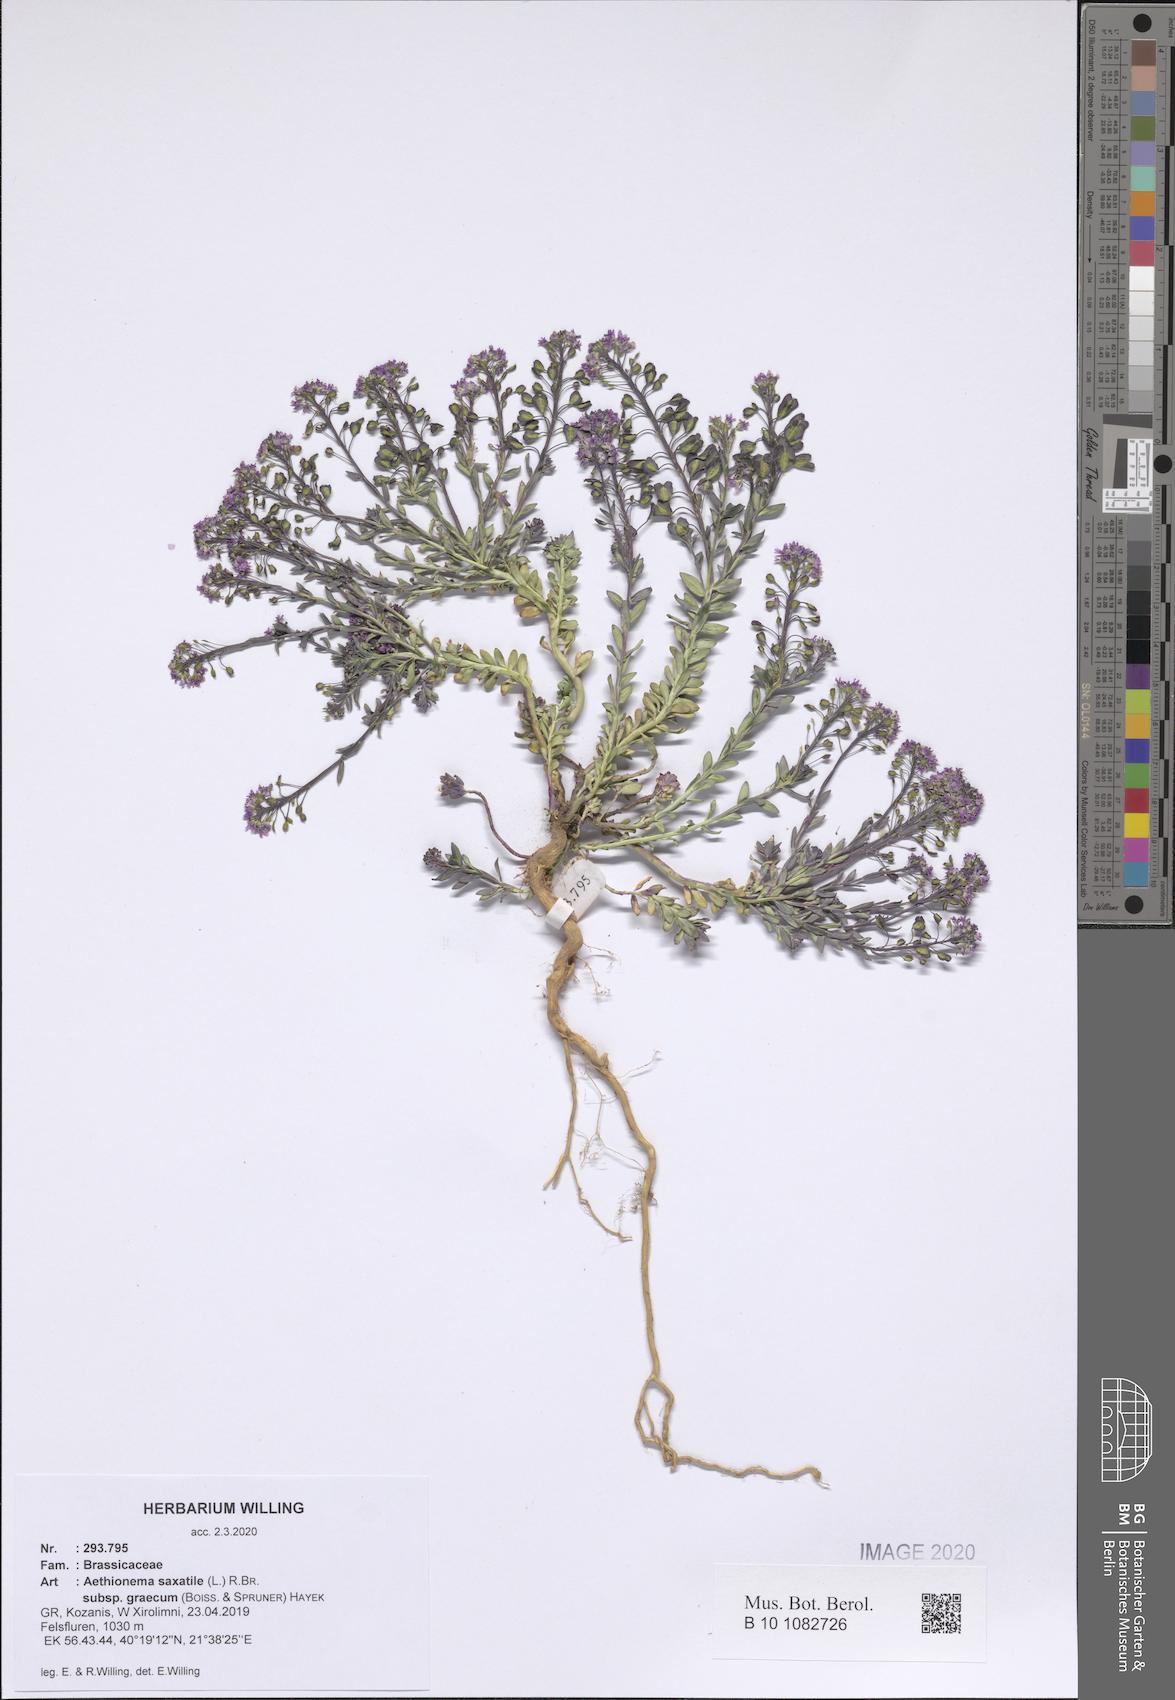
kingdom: Plantae
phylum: Tracheophyta
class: Magnoliopsida
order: Brassicales
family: Brassicaceae
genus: Aethionema
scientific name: Aethionema saxatile
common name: Burnt candytuft
